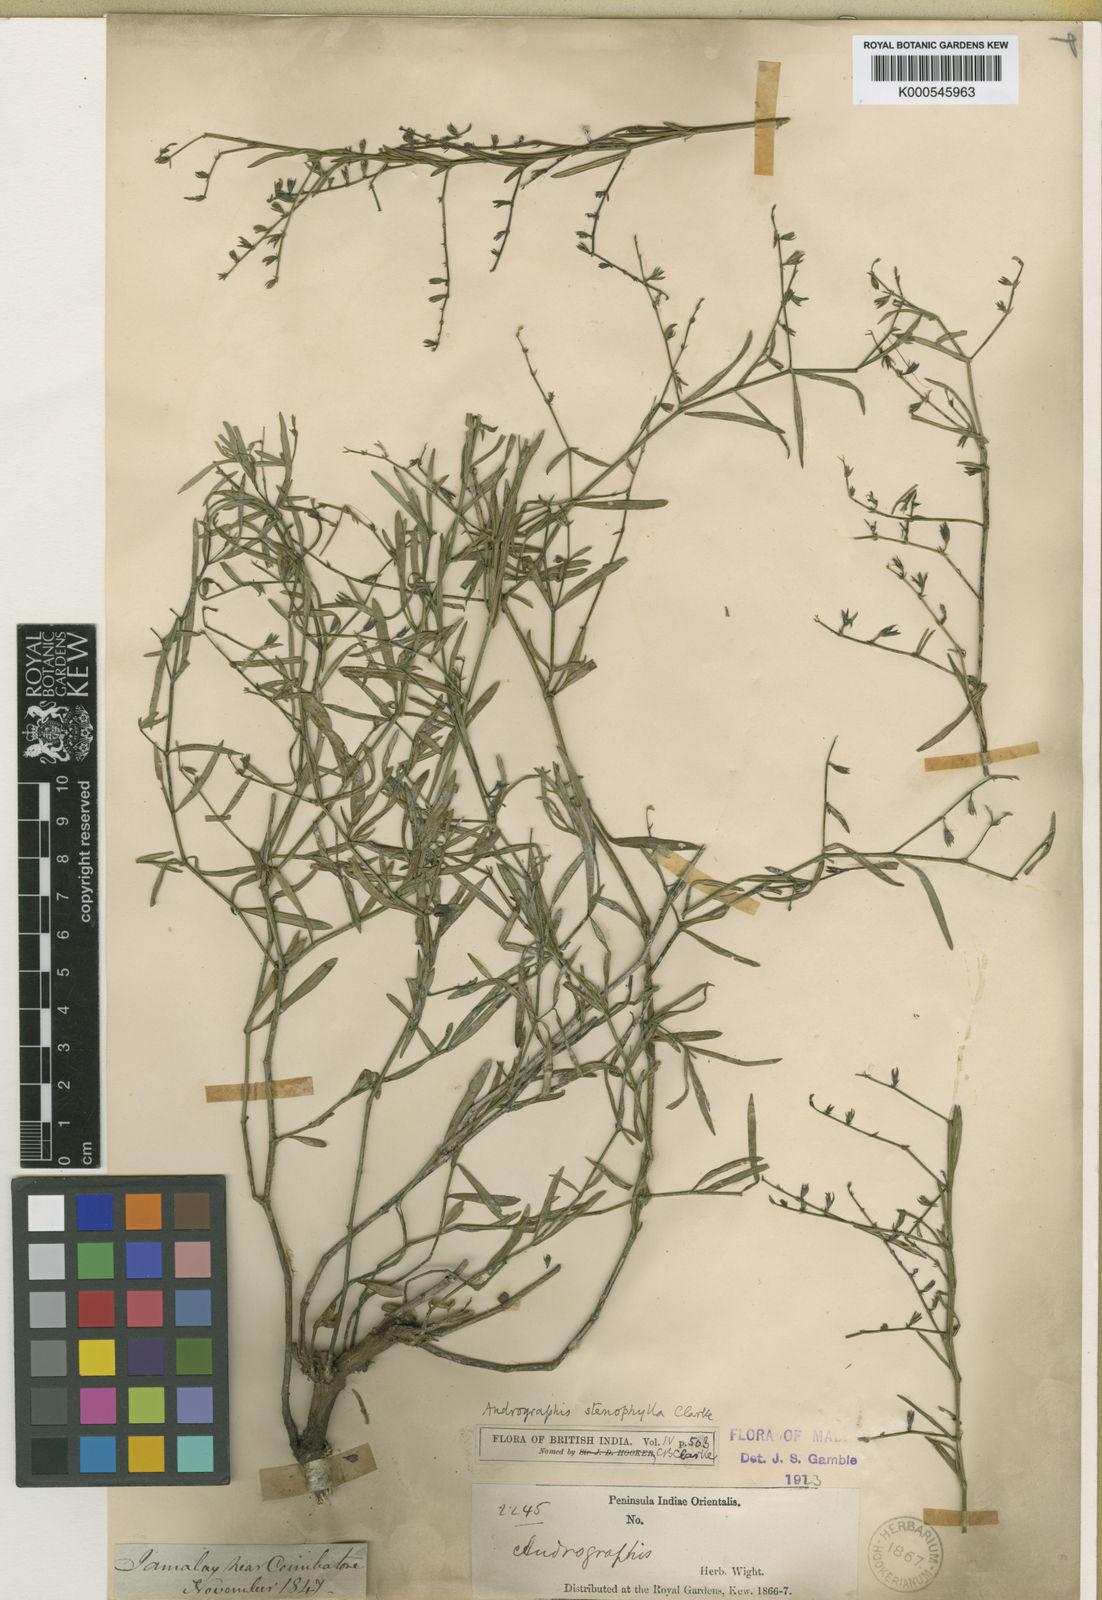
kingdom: Plantae
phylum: Tracheophyta
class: Magnoliopsida
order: Lamiales
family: Acanthaceae
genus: Andrographis
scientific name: Andrographis stenophylla
